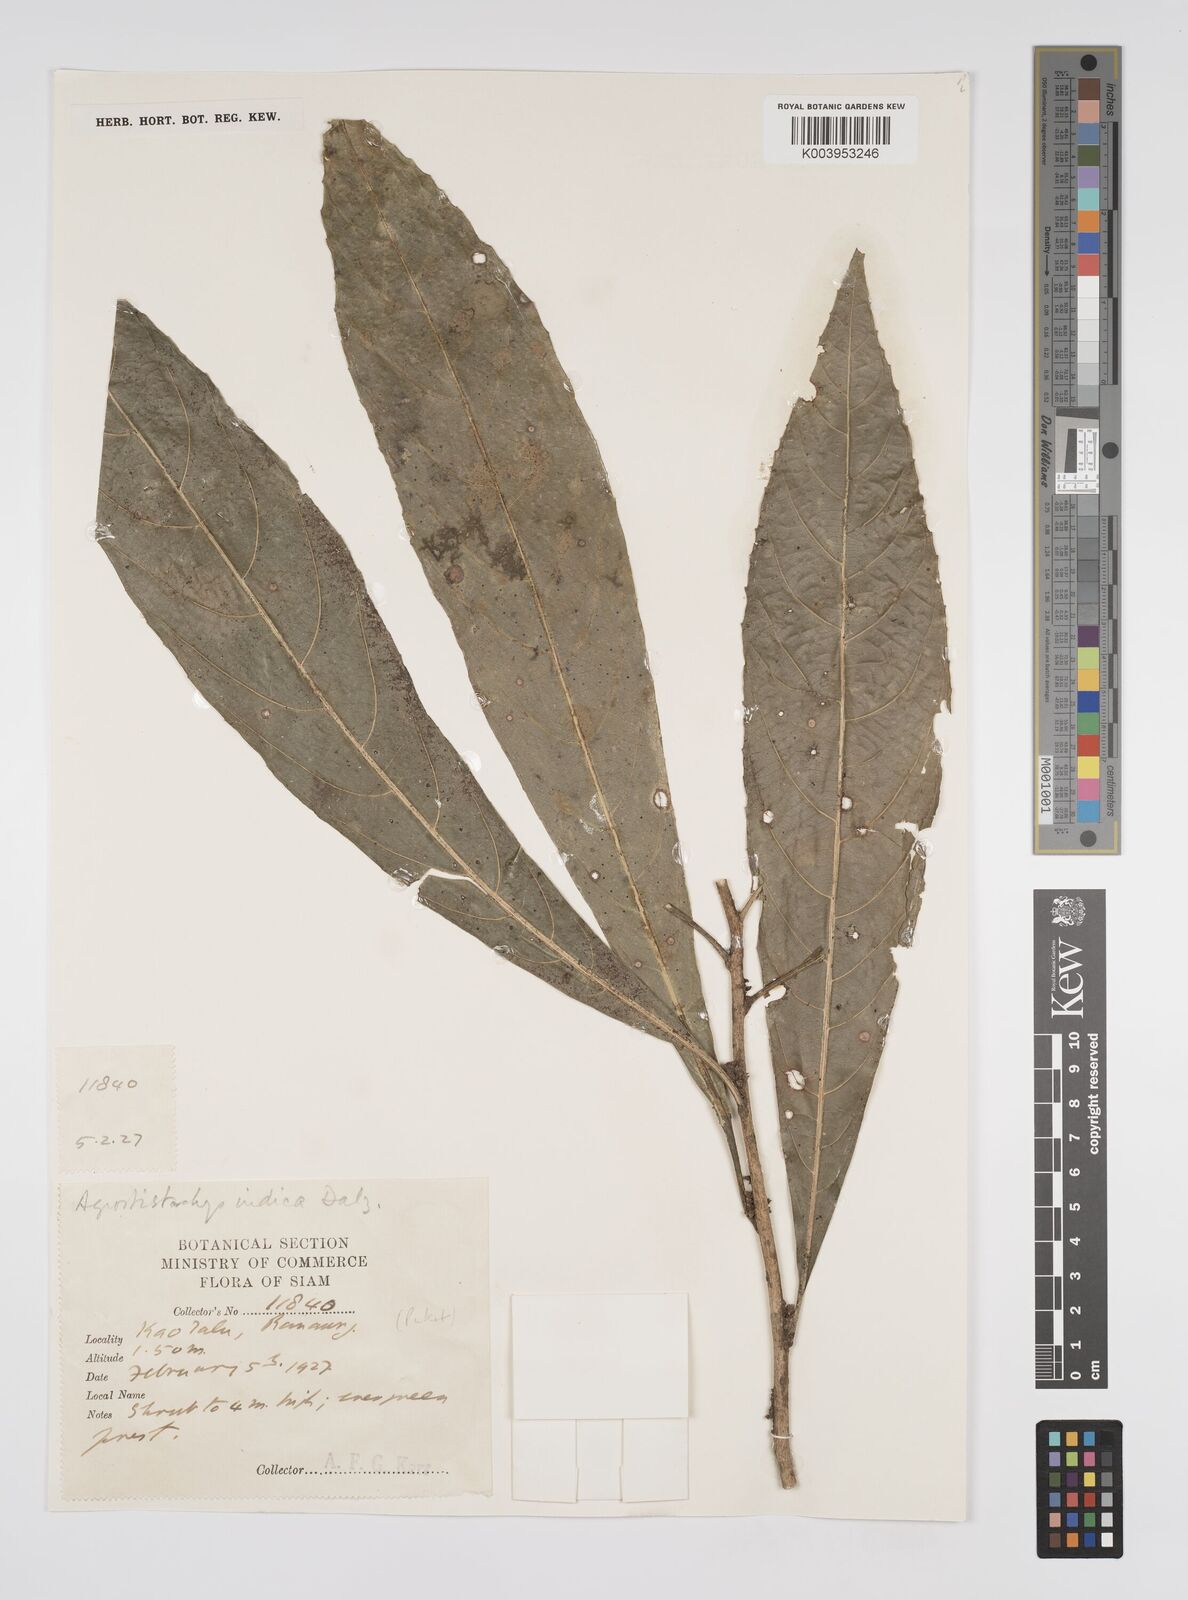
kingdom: Plantae
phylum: Tracheophyta
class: Magnoliopsida
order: Malpighiales
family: Euphorbiaceae
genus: Agrostistachys
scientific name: Agrostistachys indica
